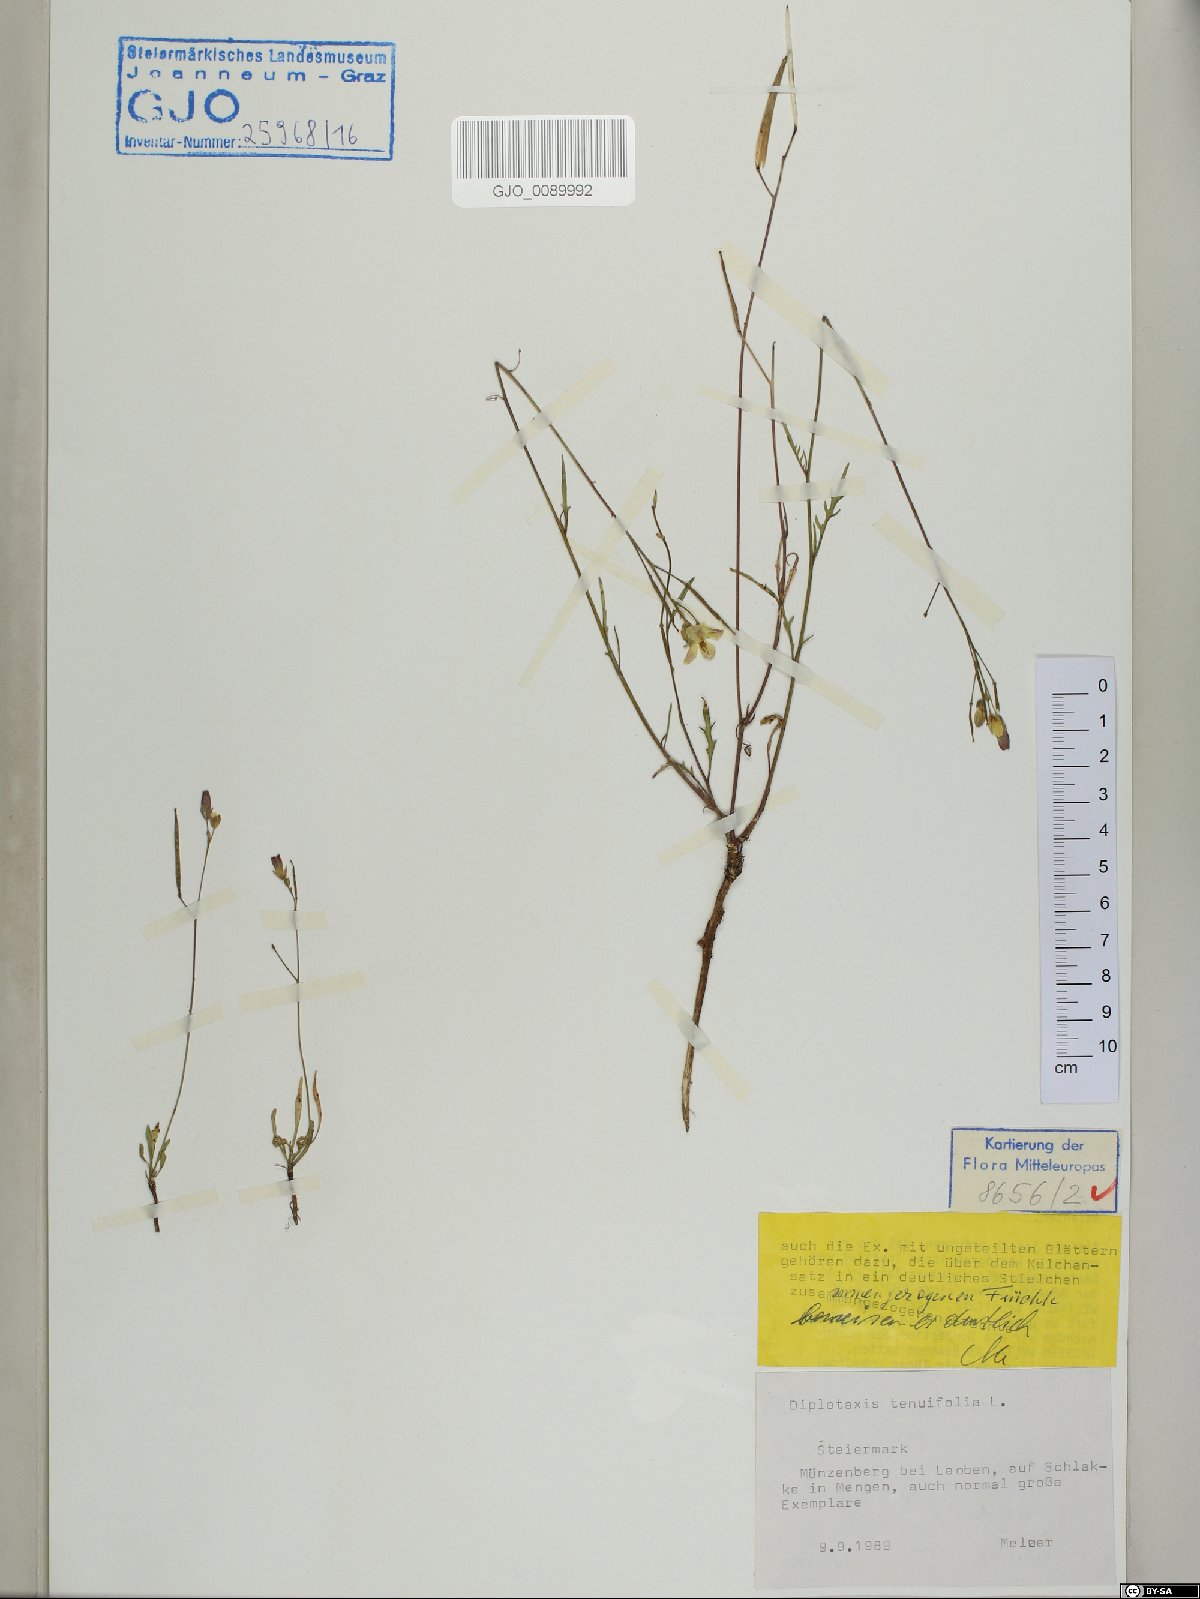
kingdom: Plantae
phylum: Tracheophyta
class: Magnoliopsida
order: Brassicales
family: Brassicaceae
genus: Diplotaxis
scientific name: Diplotaxis tenuifolia
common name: Perennial wall-rocket
